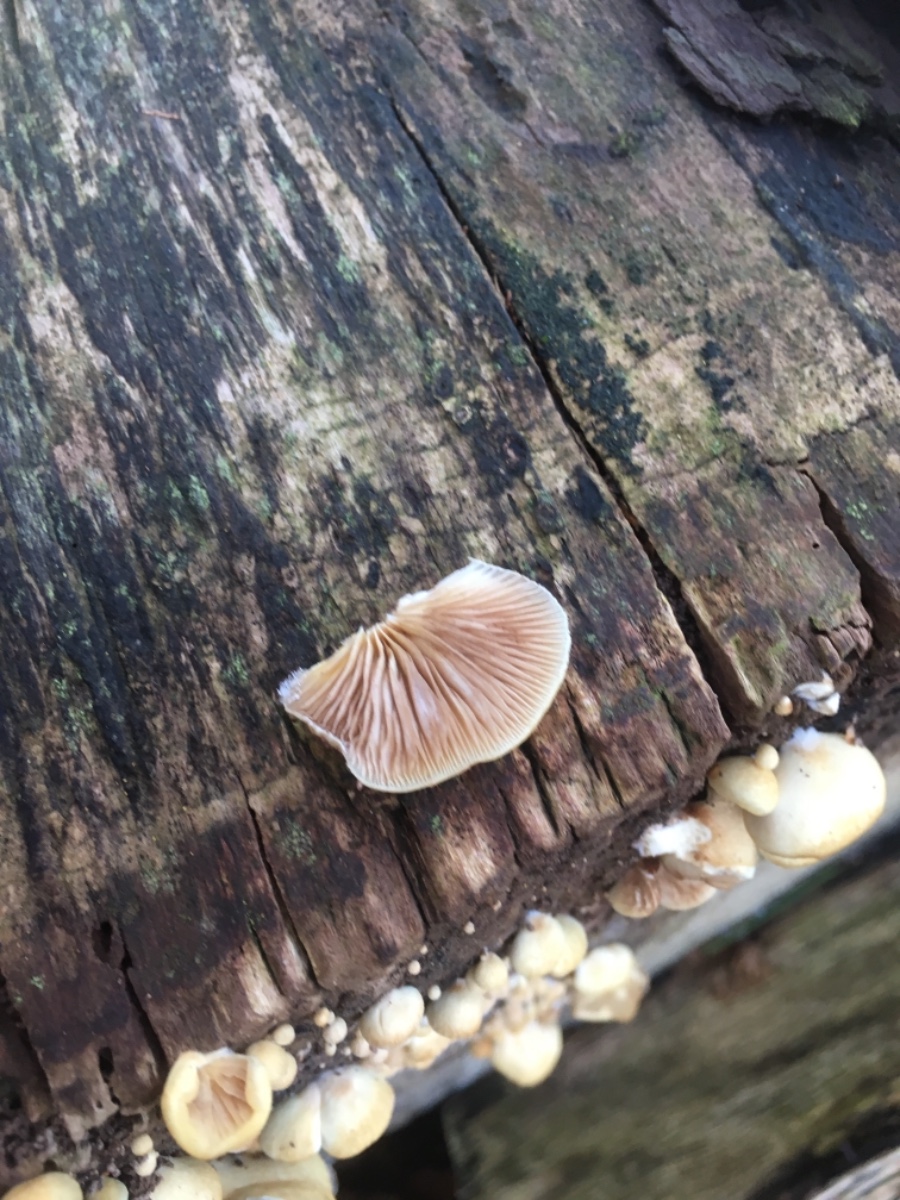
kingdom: Fungi
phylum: Basidiomycota
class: Agaricomycetes
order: Agaricales
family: Crepidotaceae
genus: Crepidotus
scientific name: Crepidotus mollis
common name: blød muslingesvamp
